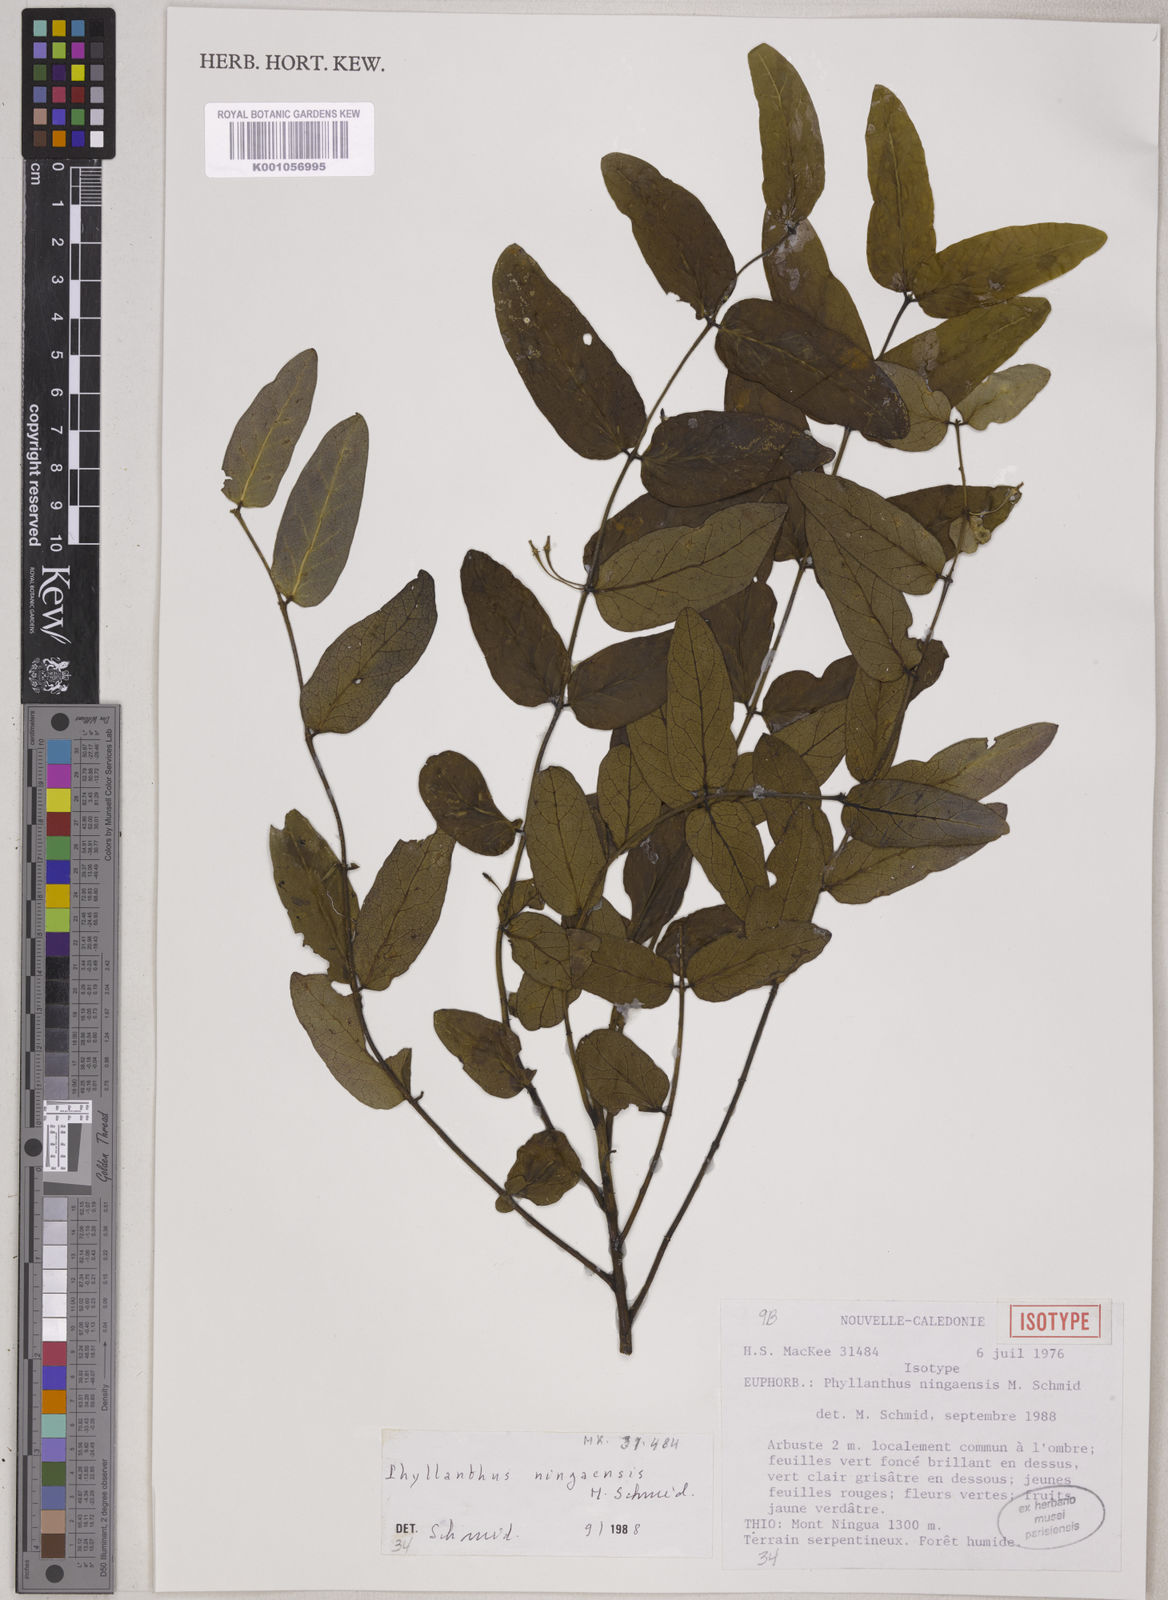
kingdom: Plantae
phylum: Tracheophyta
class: Magnoliopsida
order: Malpighiales
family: Phyllanthaceae
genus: Phyllanthus
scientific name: Phyllanthus ningaensis
